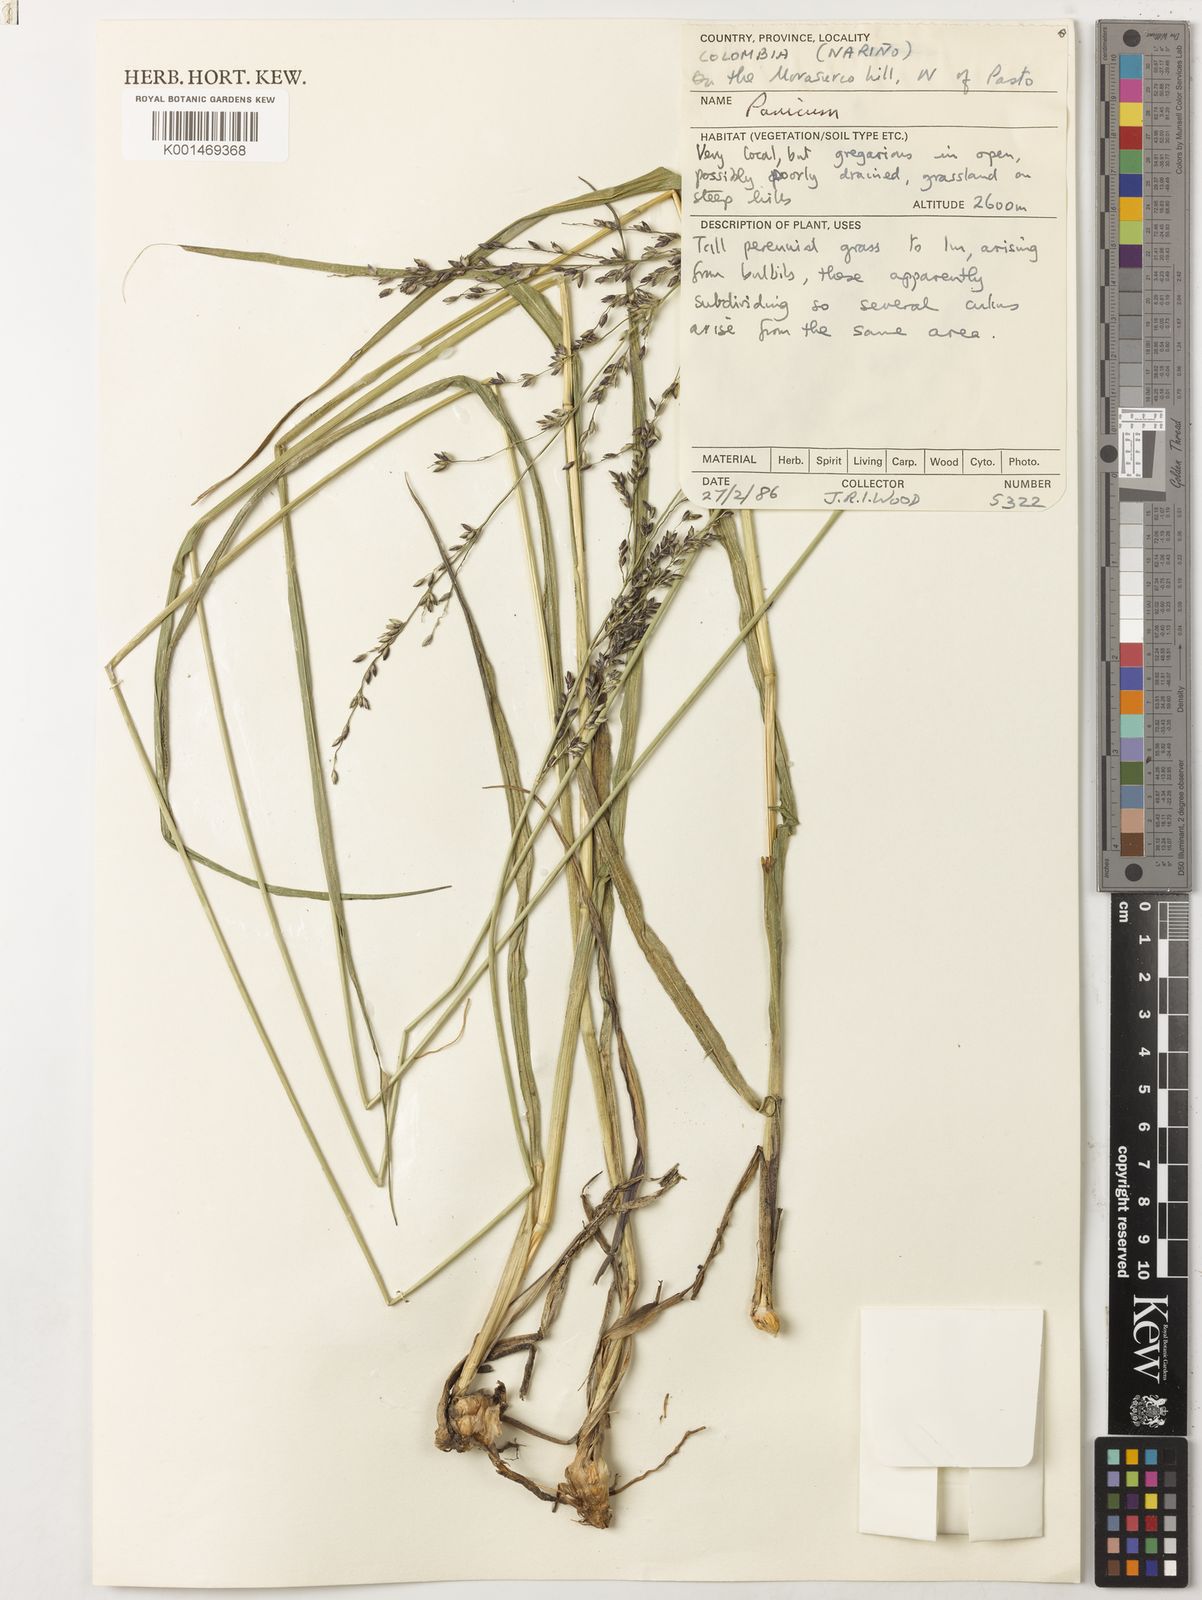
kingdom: Plantae
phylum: Tracheophyta
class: Liliopsida
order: Poales
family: Poaceae
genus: Zuloagaea
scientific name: Zuloagaea bulbosa
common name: Canyon panic grass
